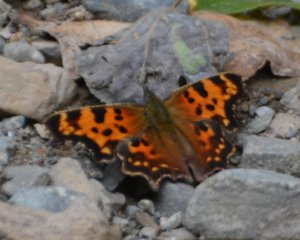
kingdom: Animalia
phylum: Arthropoda
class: Insecta
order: Lepidoptera
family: Nymphalidae
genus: Polygonia
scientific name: Polygonia faunus
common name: Green Comma
